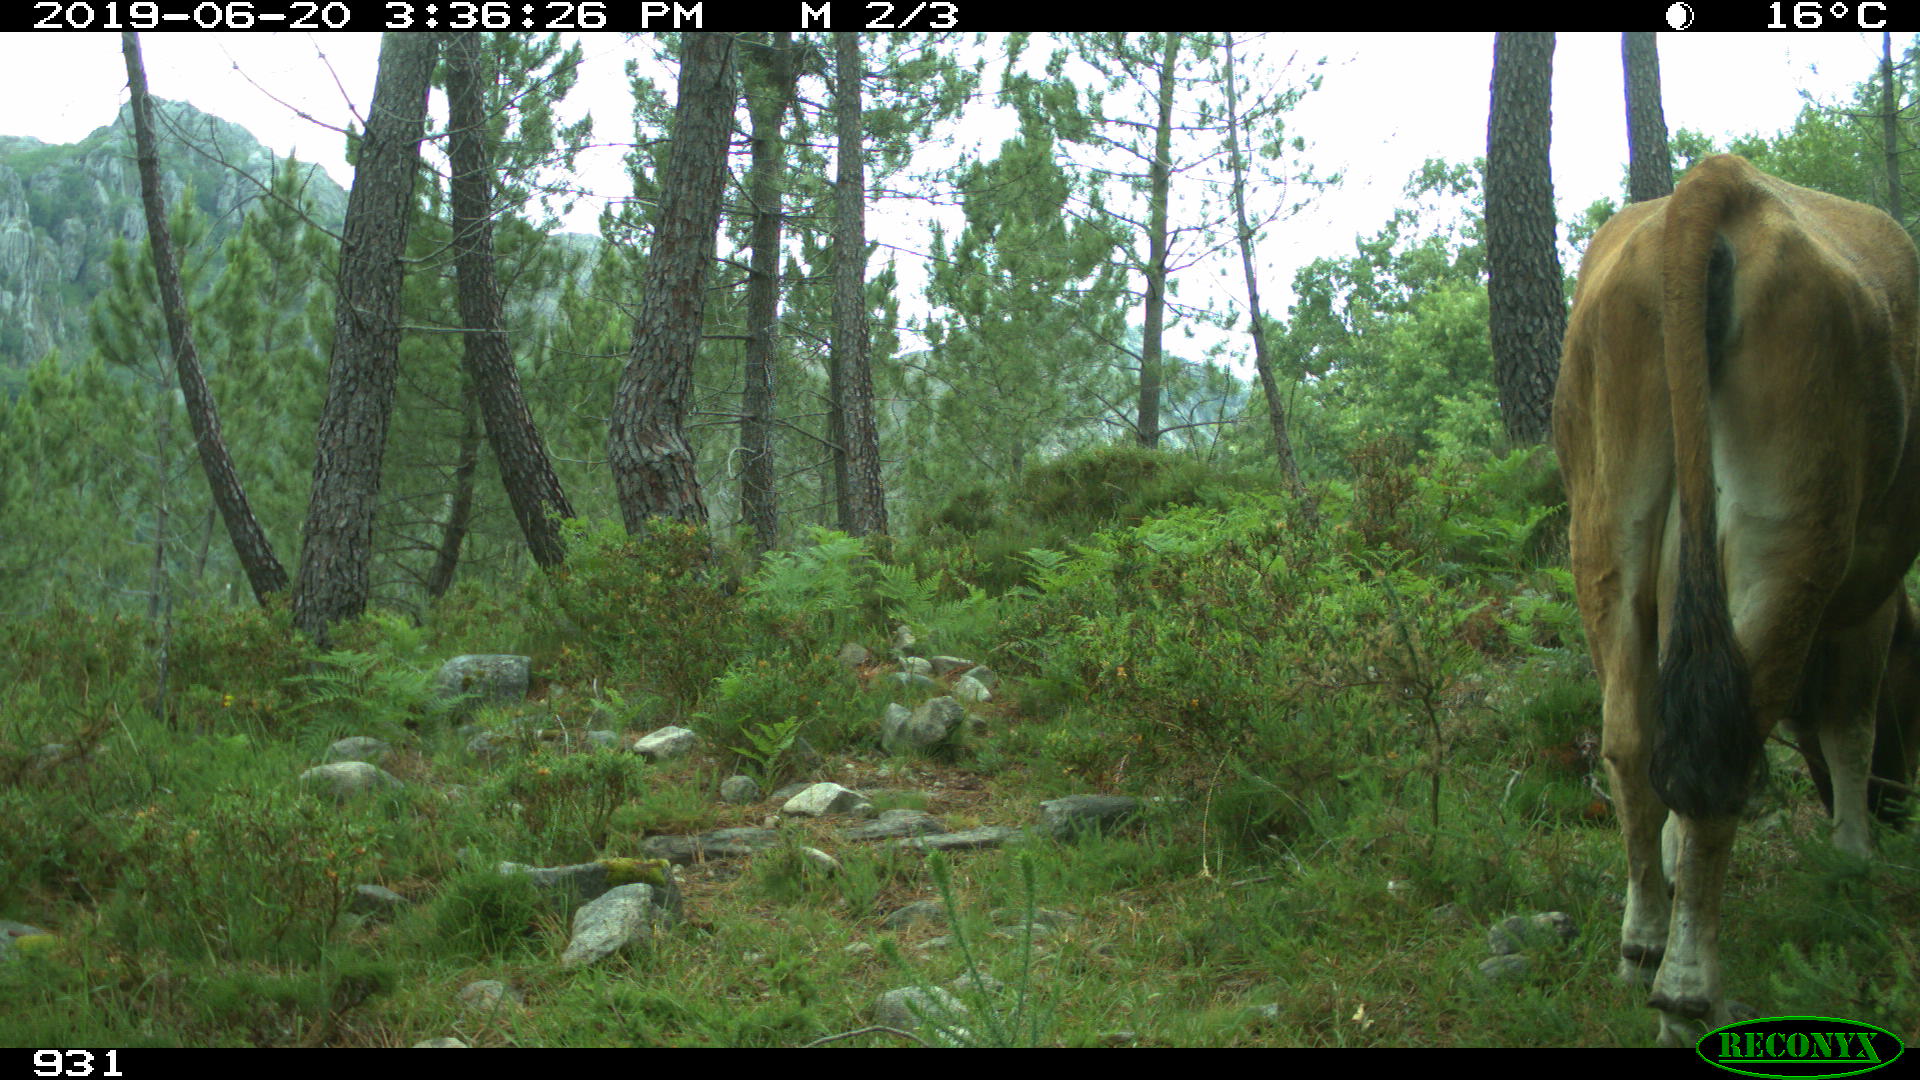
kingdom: Animalia
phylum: Chordata
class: Mammalia
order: Artiodactyla
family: Bovidae
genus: Bos
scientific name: Bos taurus
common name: Domesticated cattle
